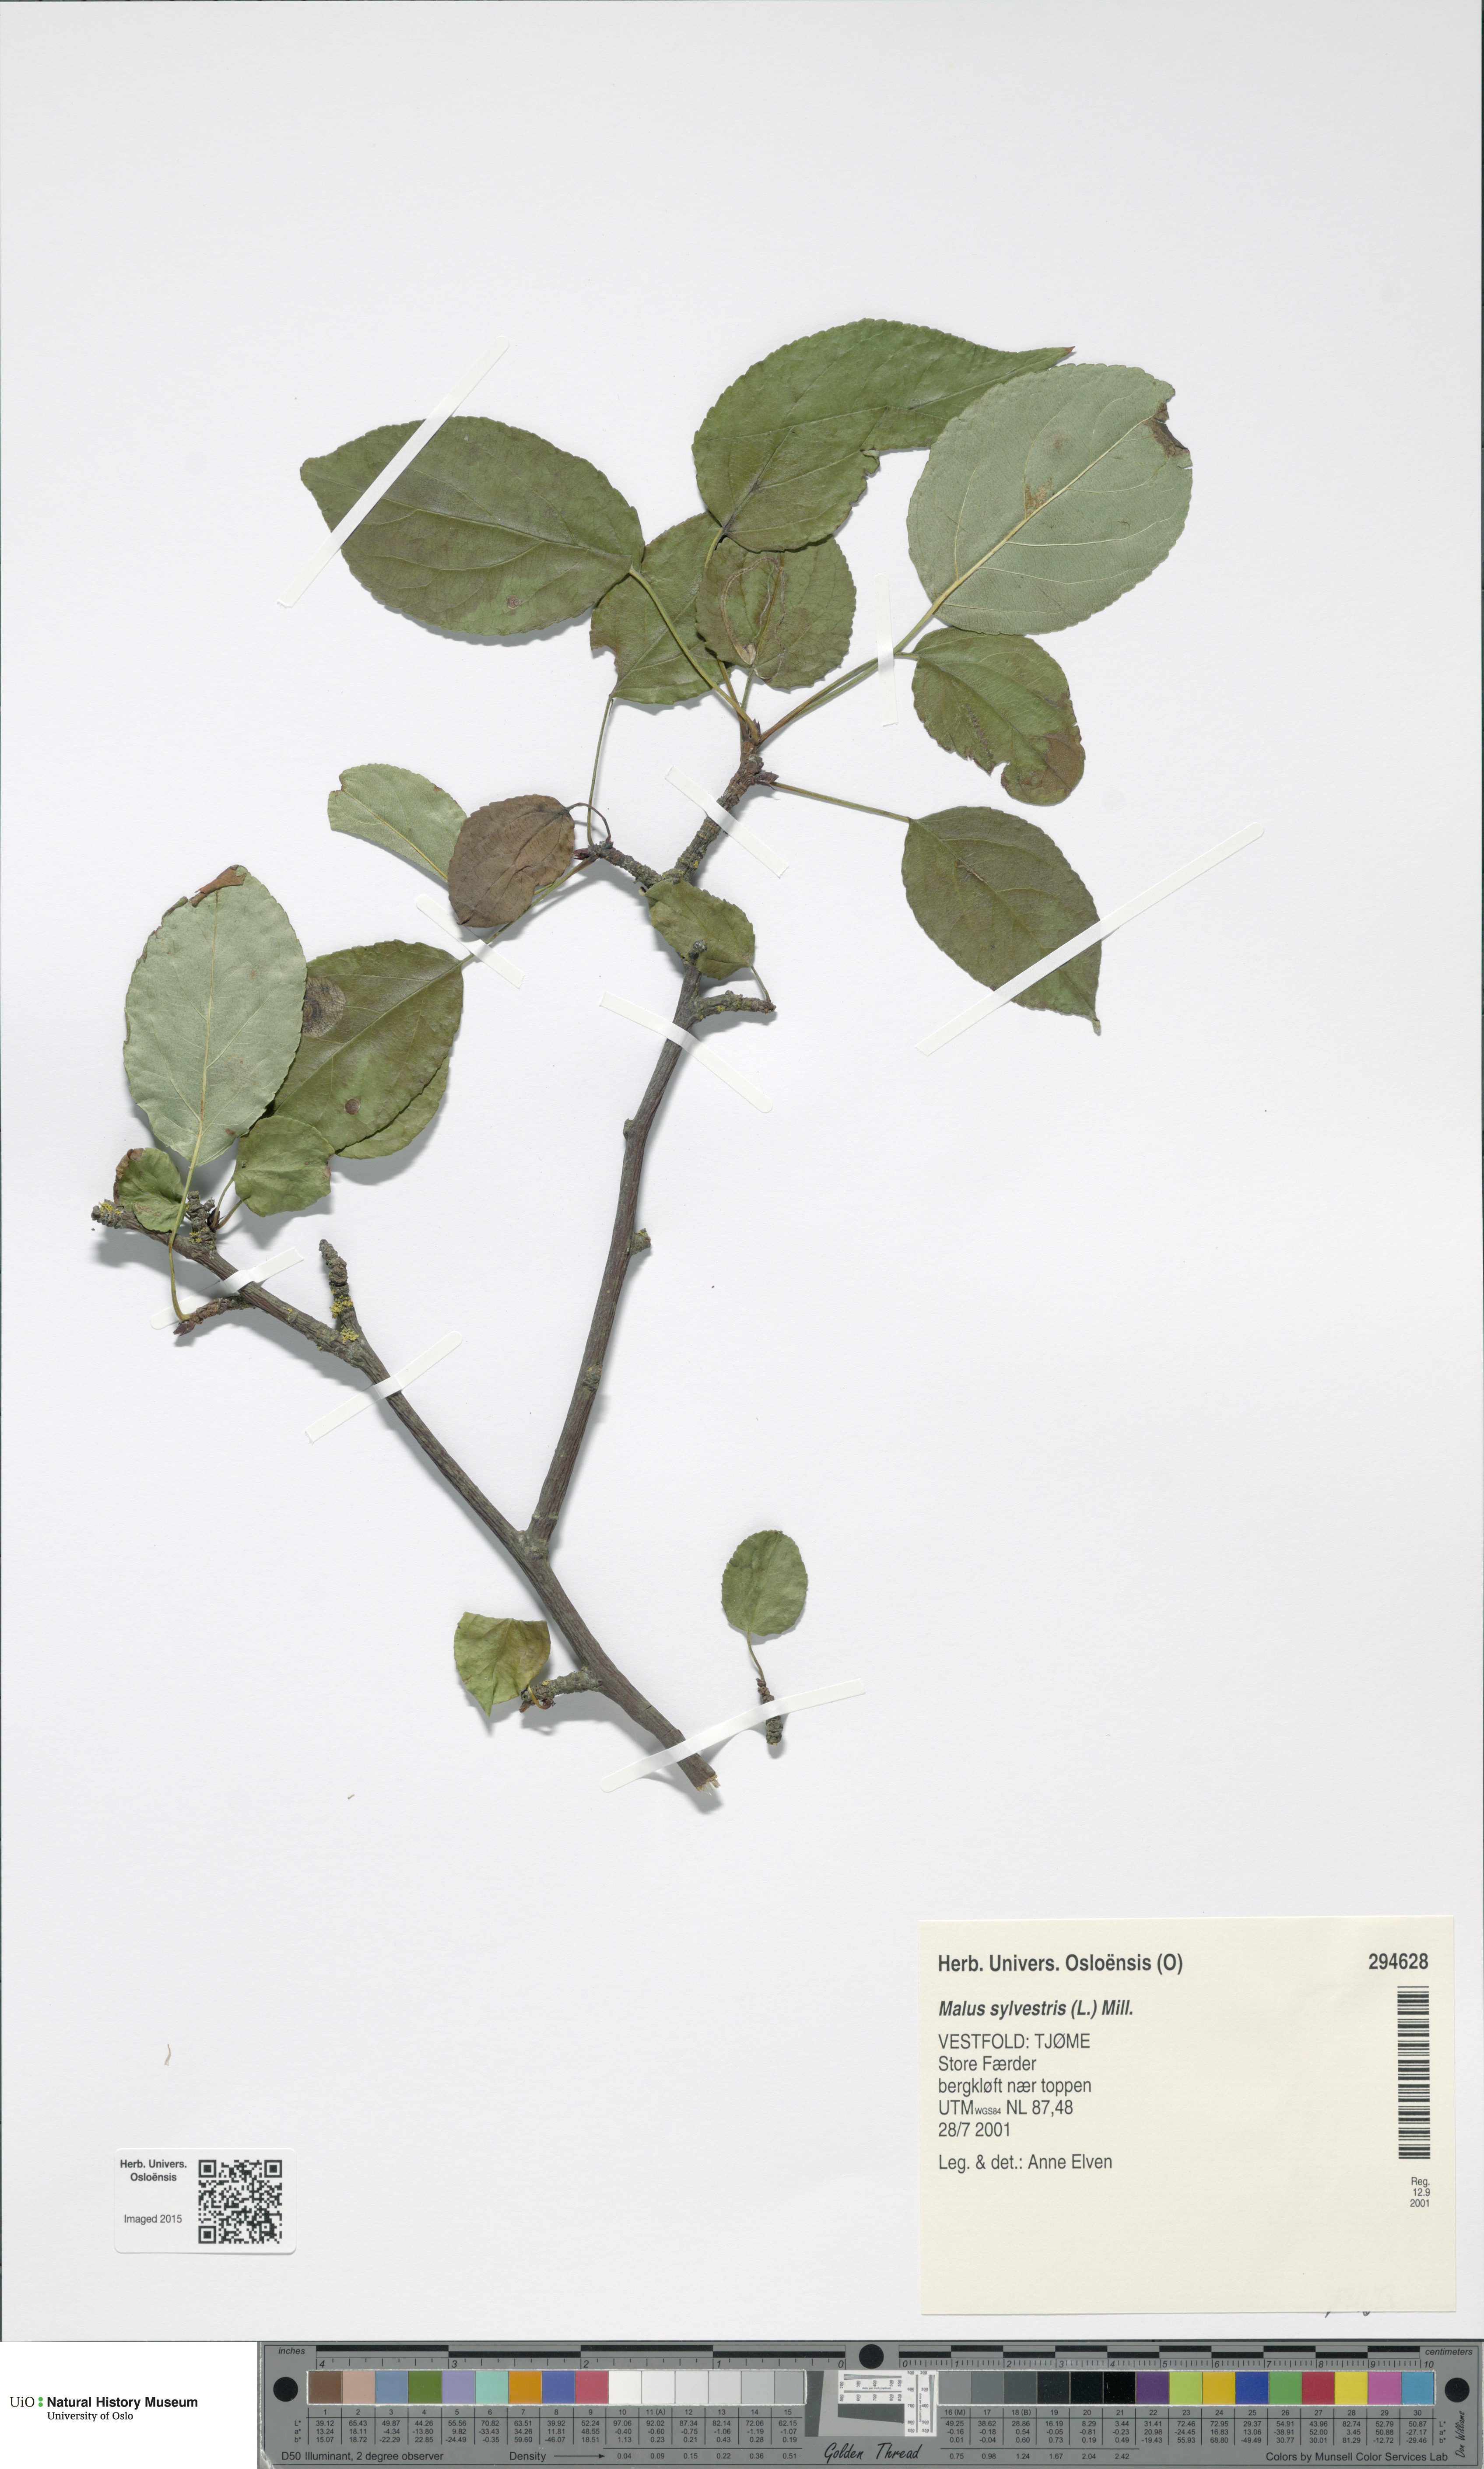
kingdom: Plantae
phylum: Tracheophyta
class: Magnoliopsida
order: Rosales
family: Rosaceae
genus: Malus
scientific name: Malus sylvestris
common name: Crab apple
